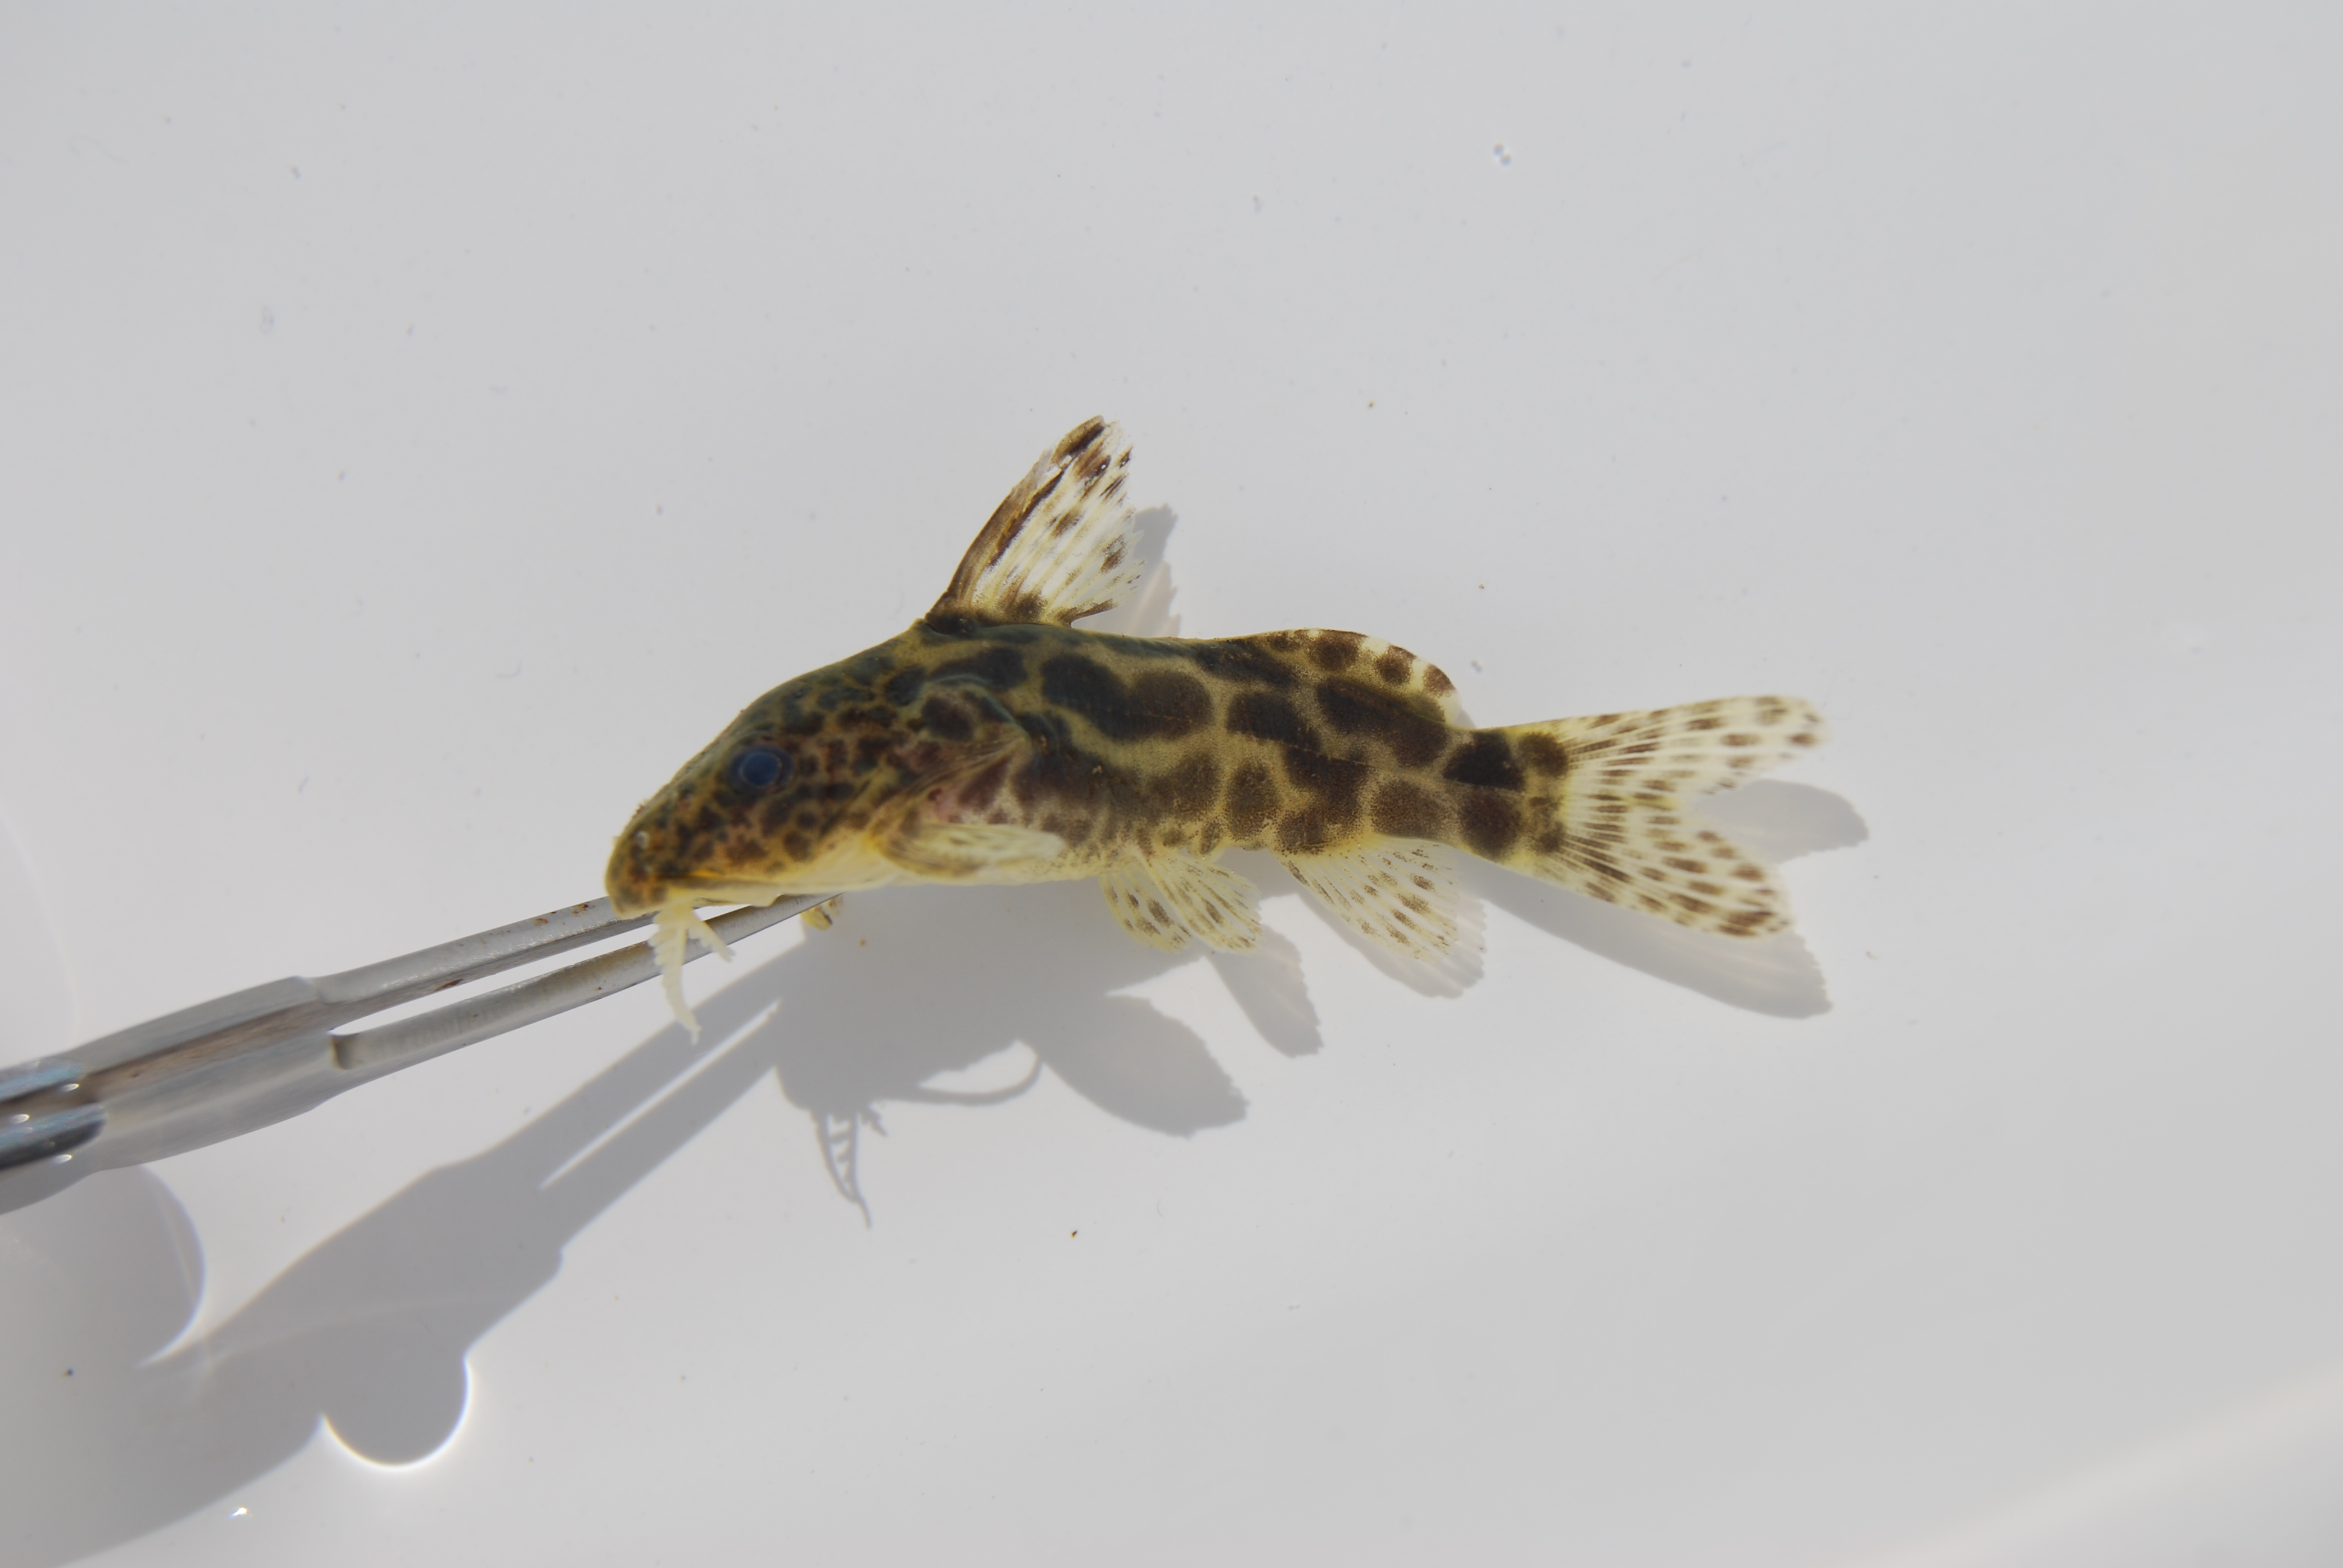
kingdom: Animalia
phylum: Chordata
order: Siluriformes
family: Mochokidae
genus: Synodontis
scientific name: Synodontis nebulosus
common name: Cloudy squeaker
